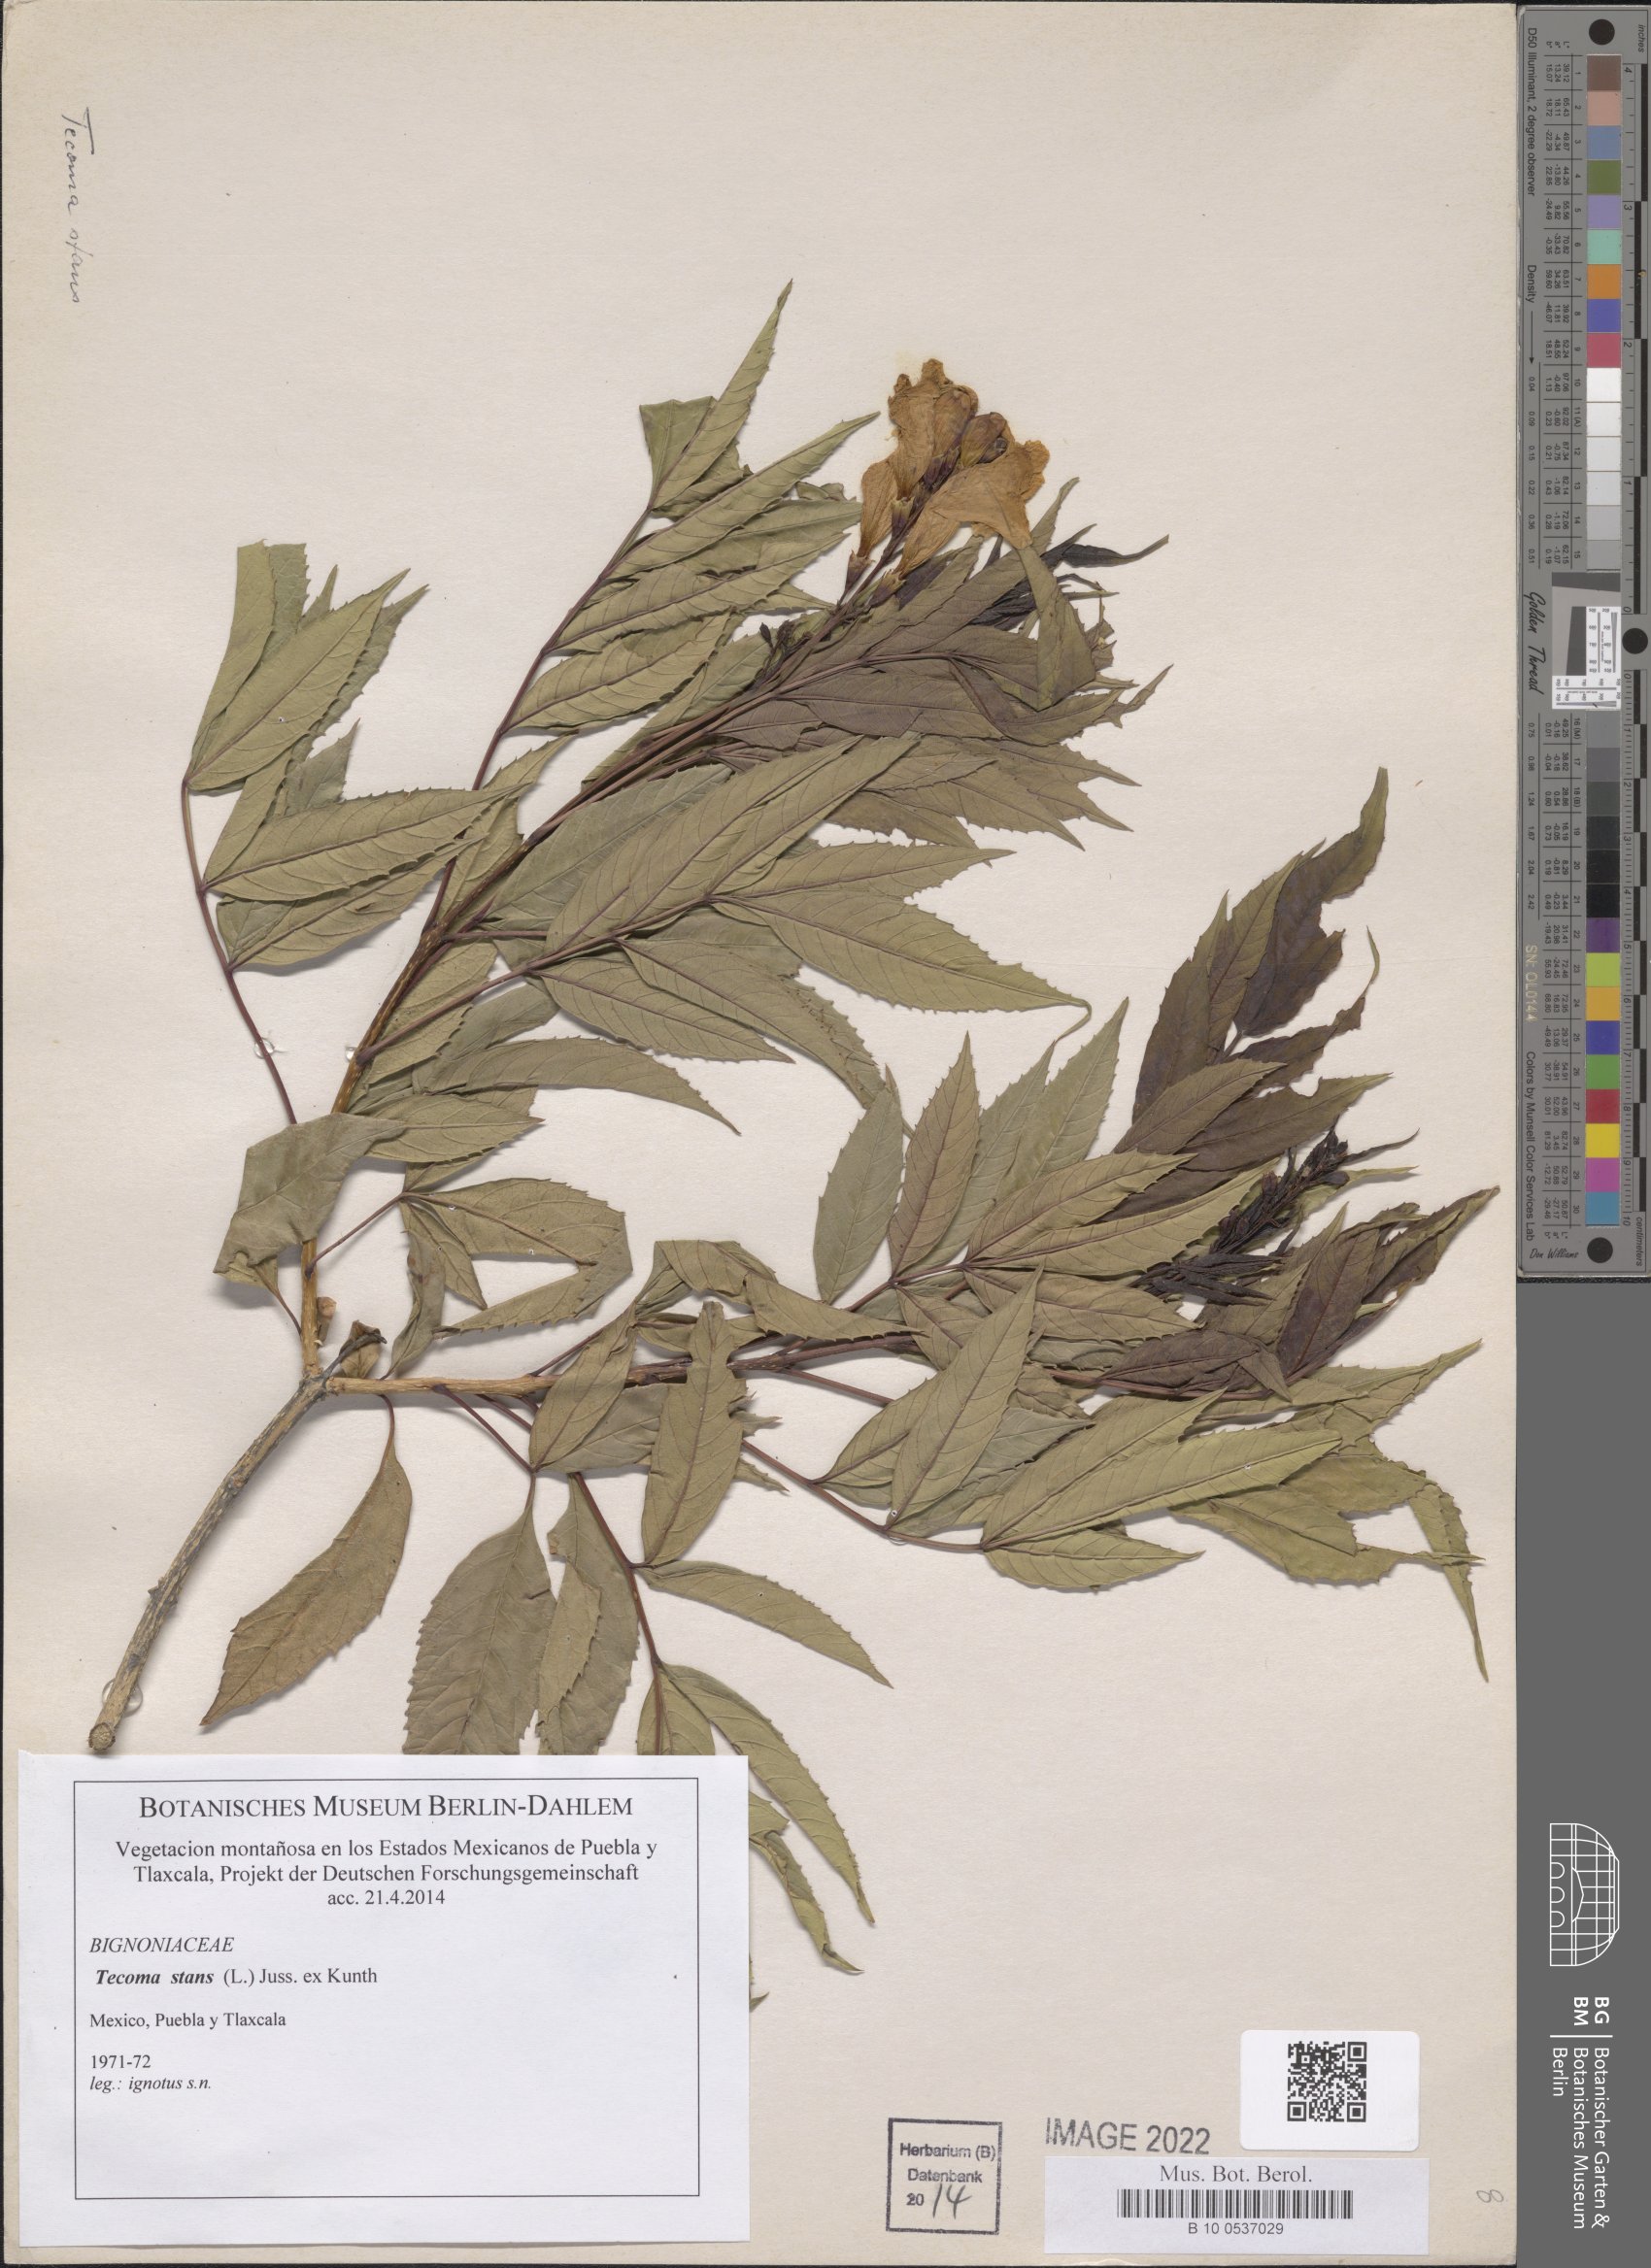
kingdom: Plantae
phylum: Tracheophyta
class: Magnoliopsida
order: Lamiales
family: Bignoniaceae
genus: Tecoma
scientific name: Tecoma stans
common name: Yellow trumpetbush
